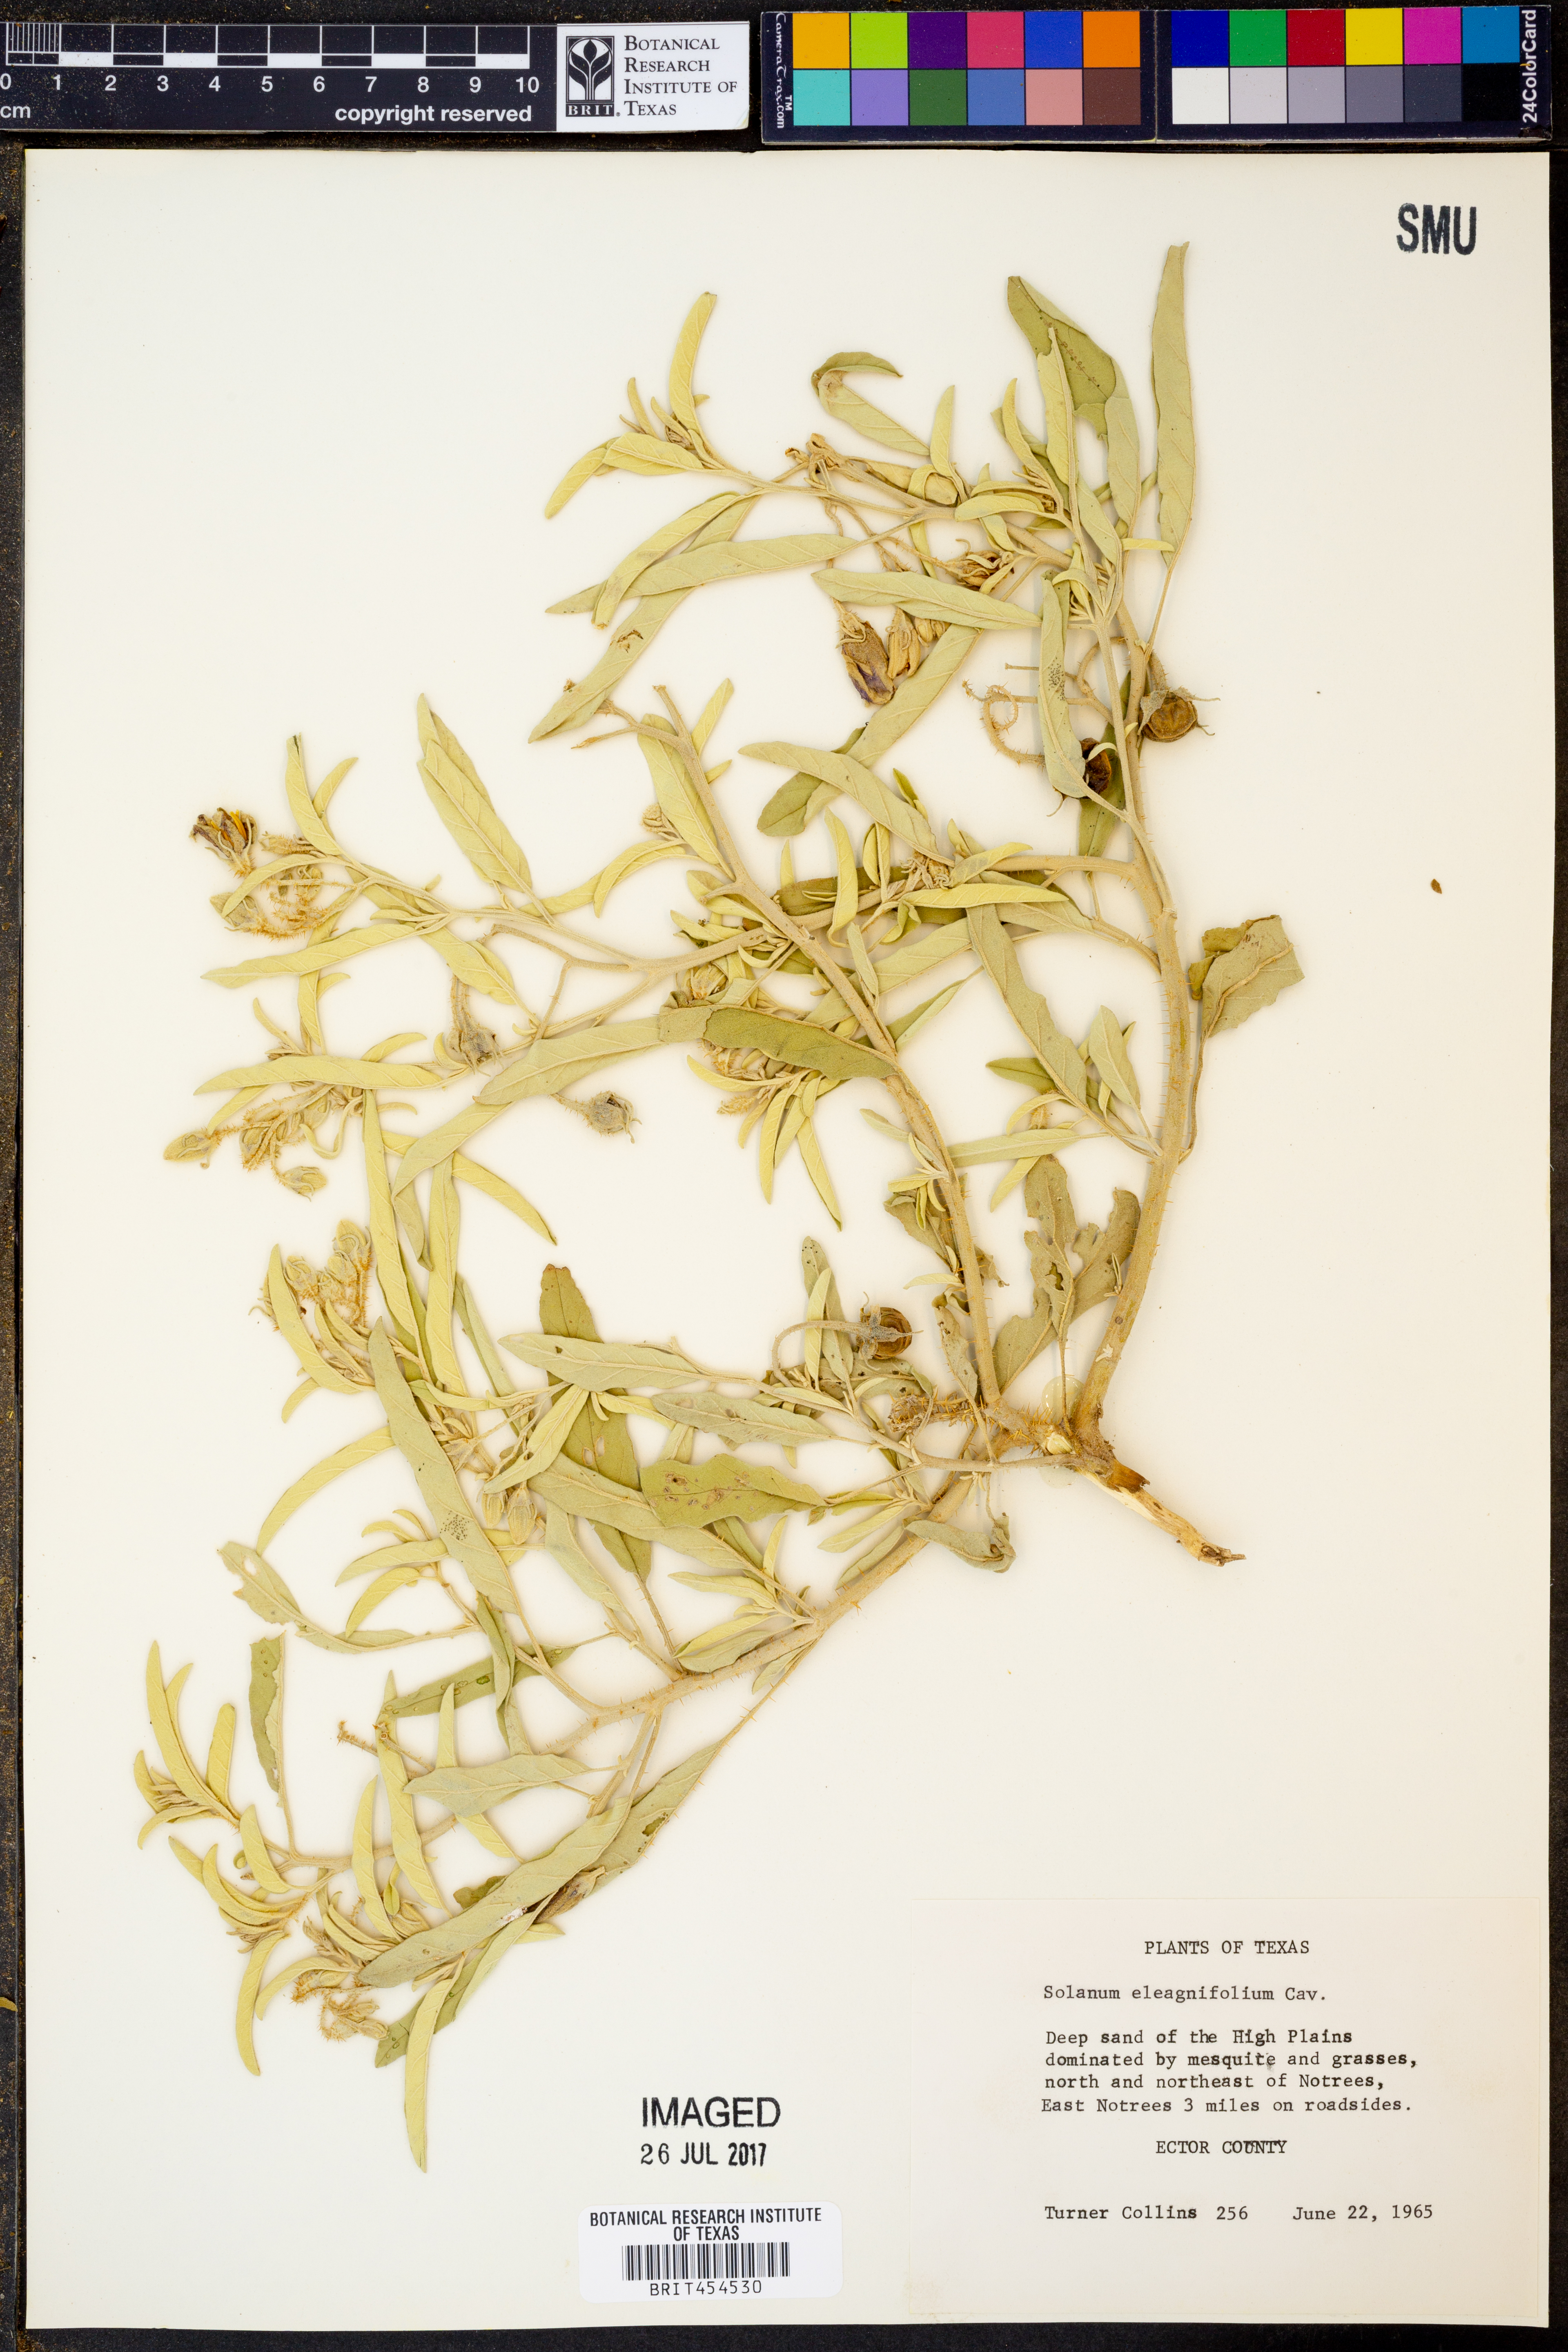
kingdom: Plantae
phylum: Tracheophyta
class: Magnoliopsida
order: Solanales
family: Solanaceae
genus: Solanum
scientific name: Solanum elaeagnifolium
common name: Silverleaf nightshade
